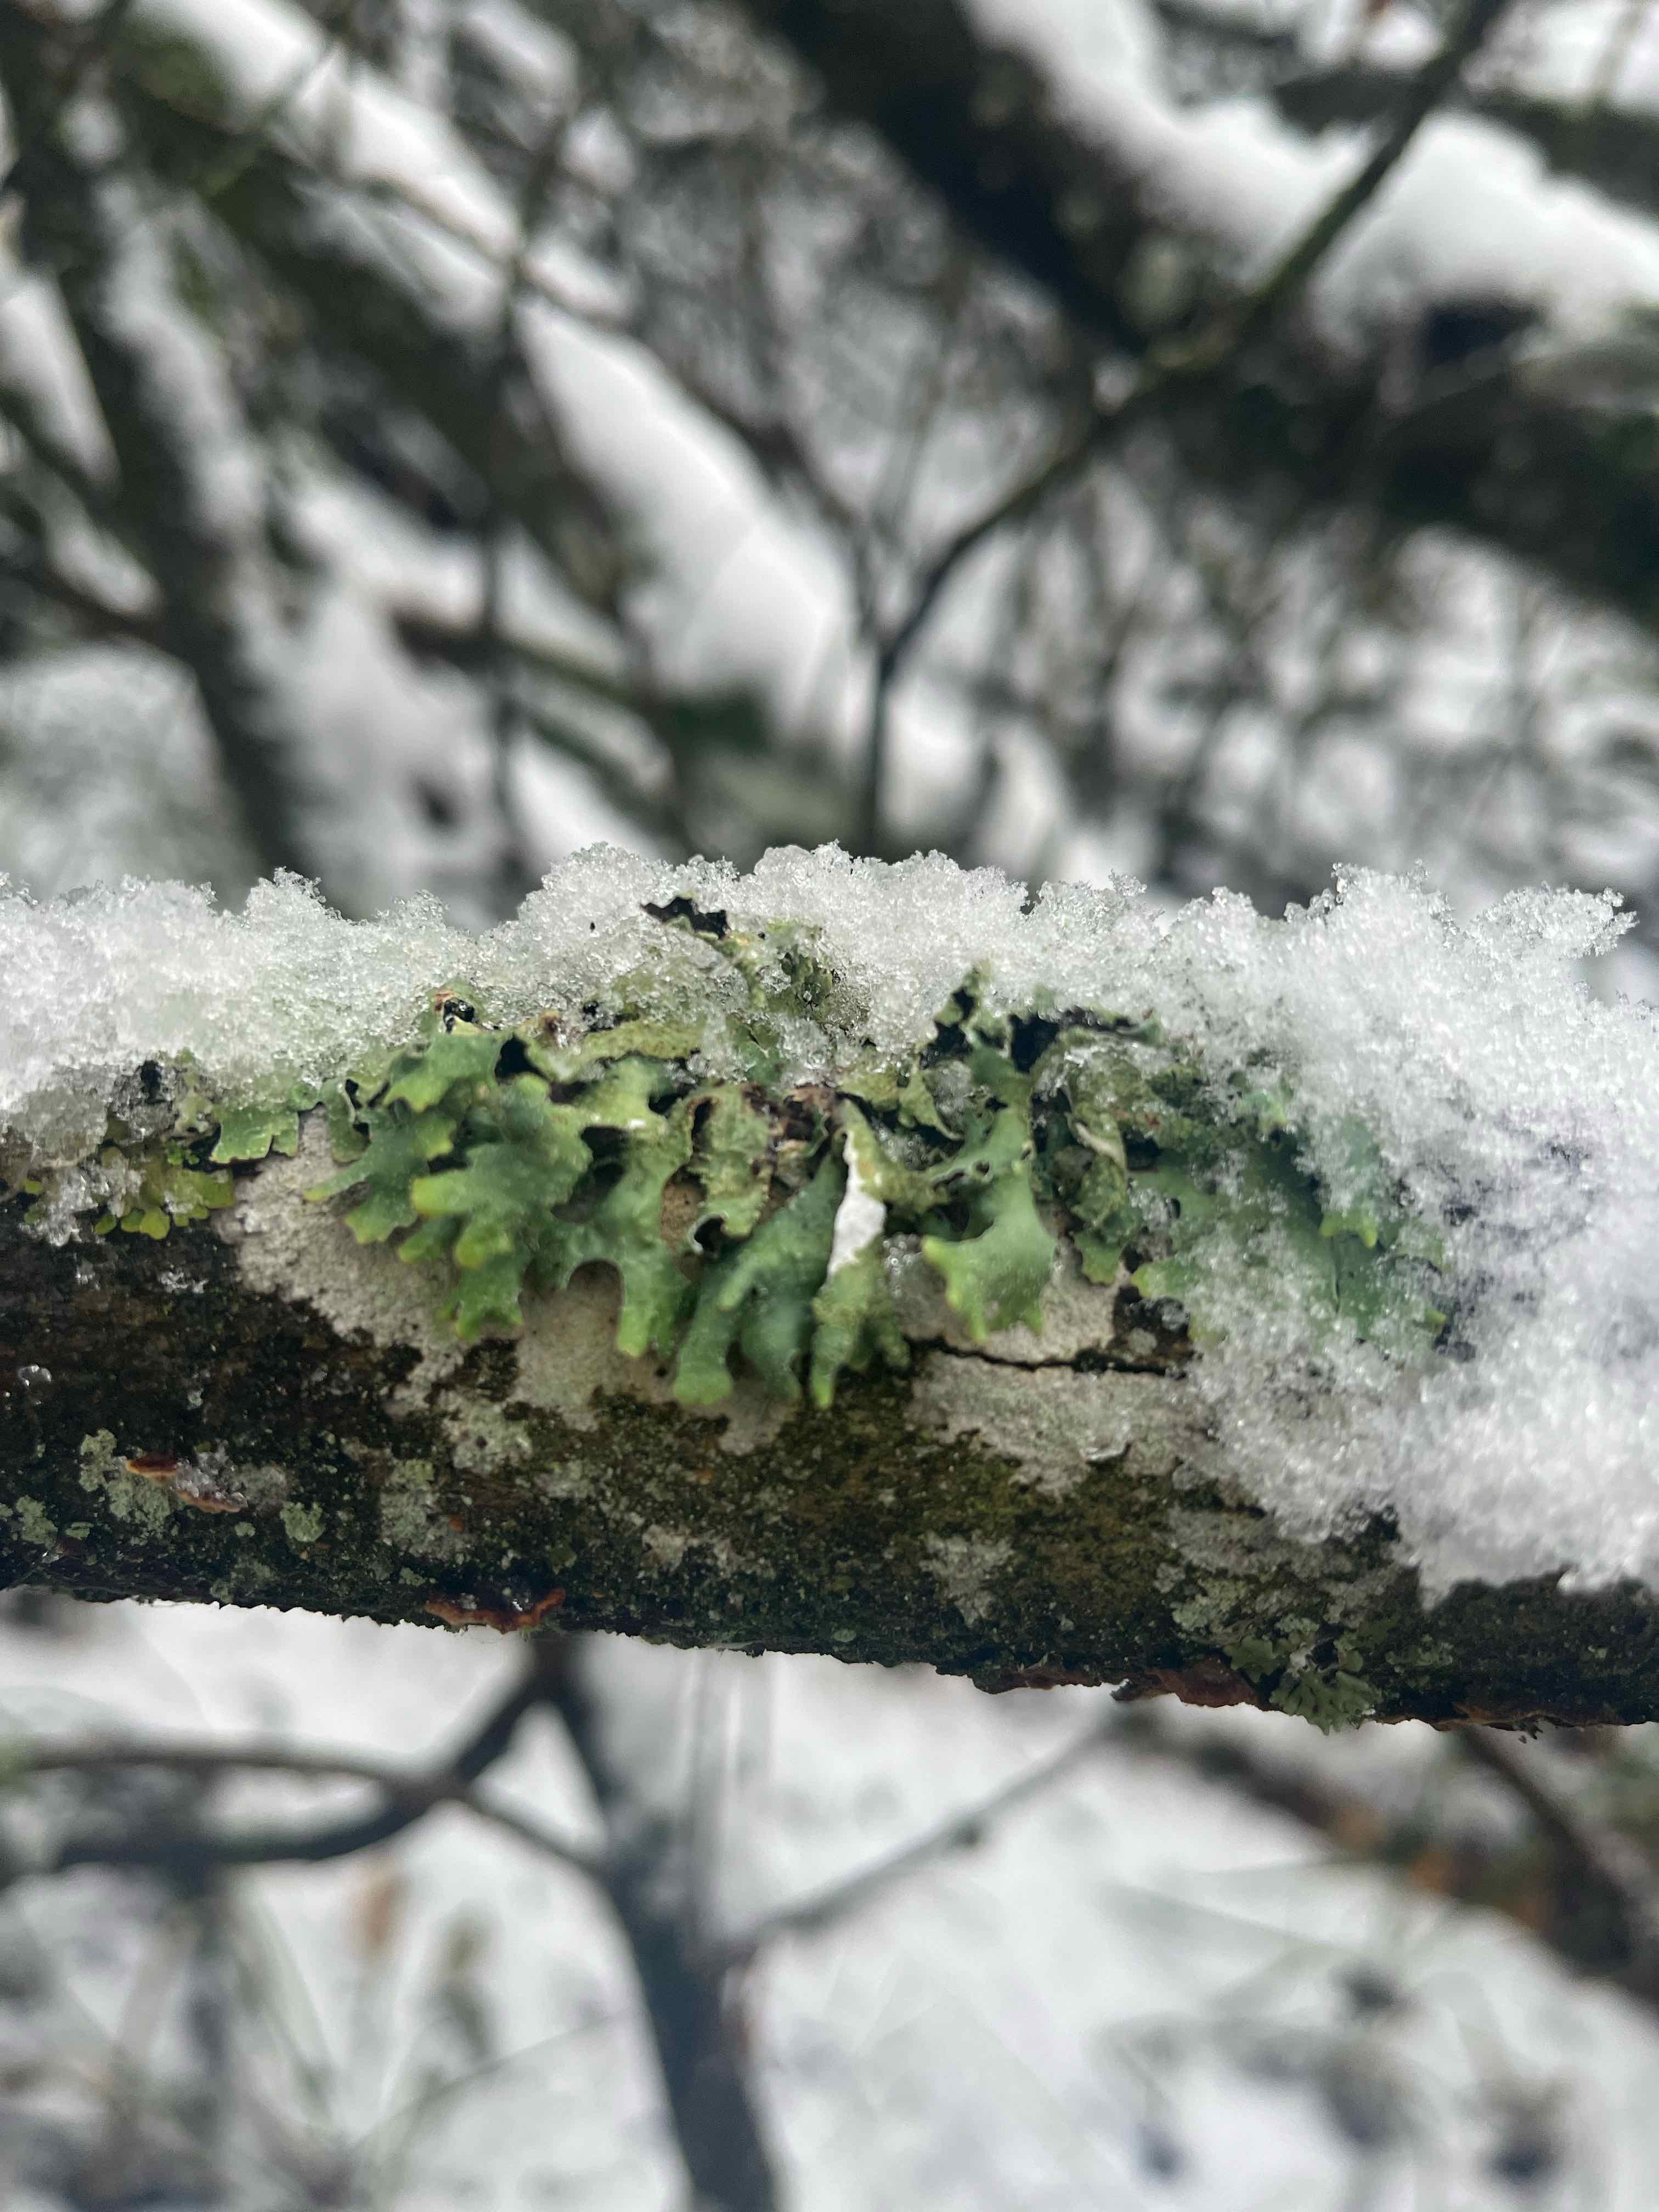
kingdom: Fungi
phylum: Ascomycota
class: Lecanoromycetes
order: Lecanorales
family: Parmeliaceae
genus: Parmelia
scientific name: Parmelia
